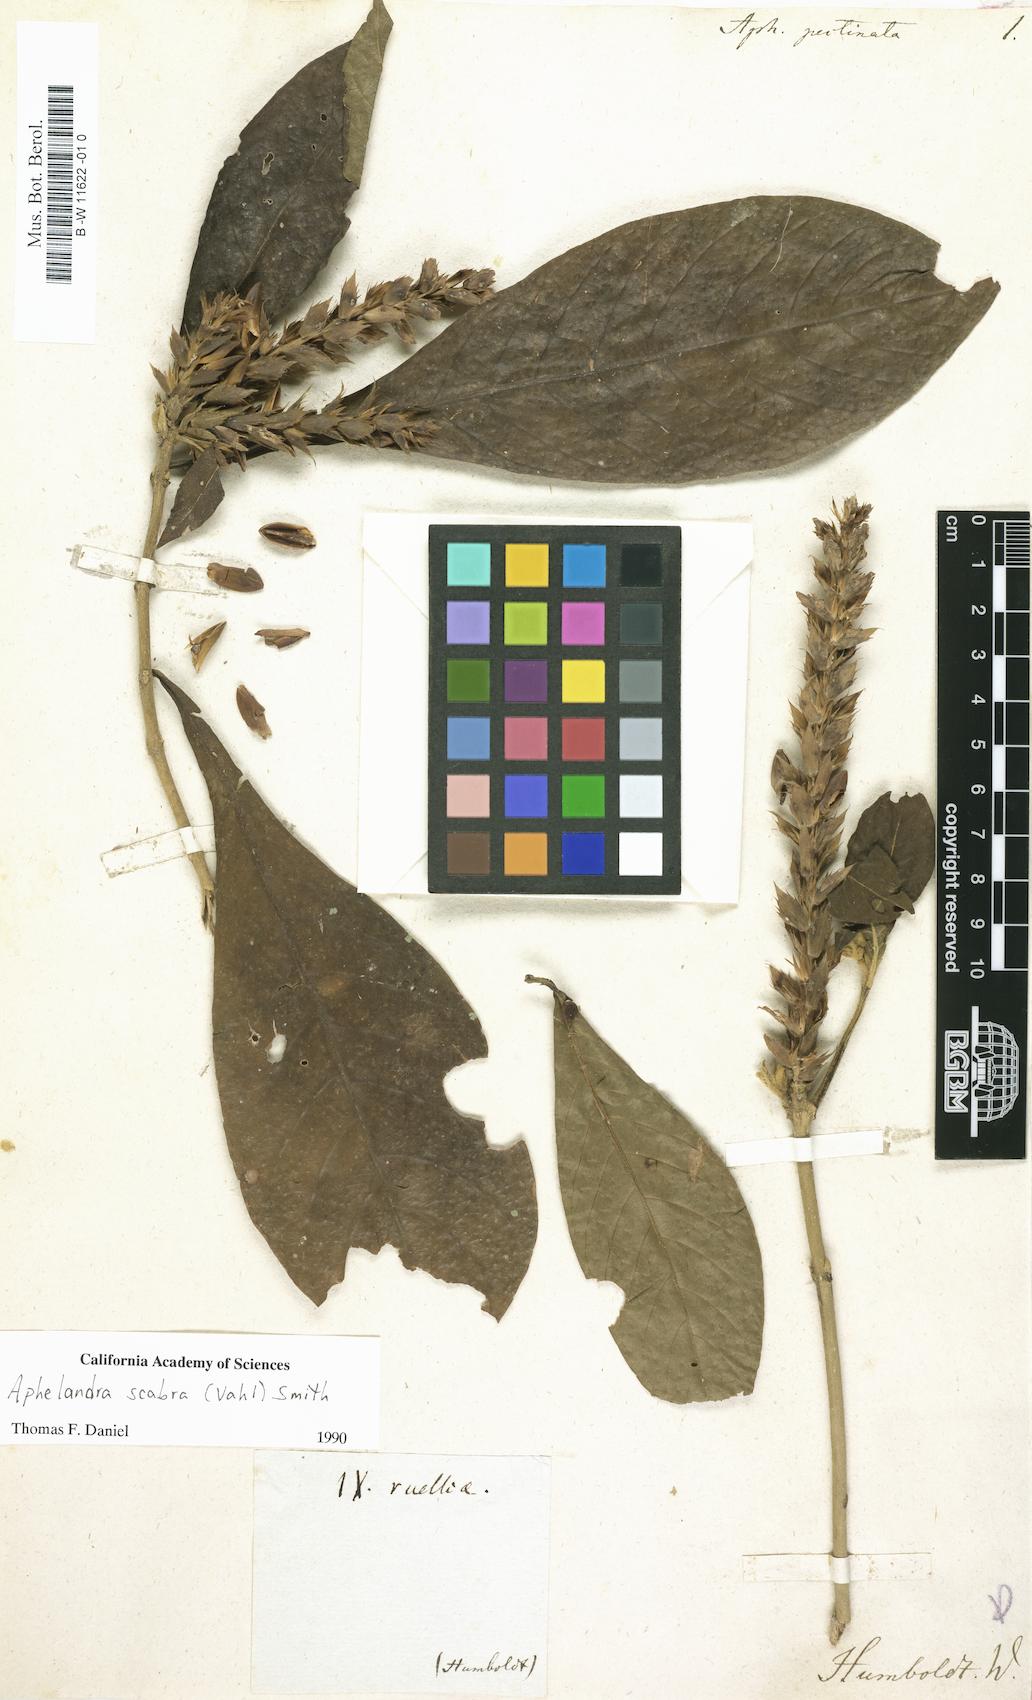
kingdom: Plantae
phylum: Tracheophyta
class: Magnoliopsida
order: Lamiales
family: Acanthaceae
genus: Aphelandra
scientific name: Aphelandra scabra
